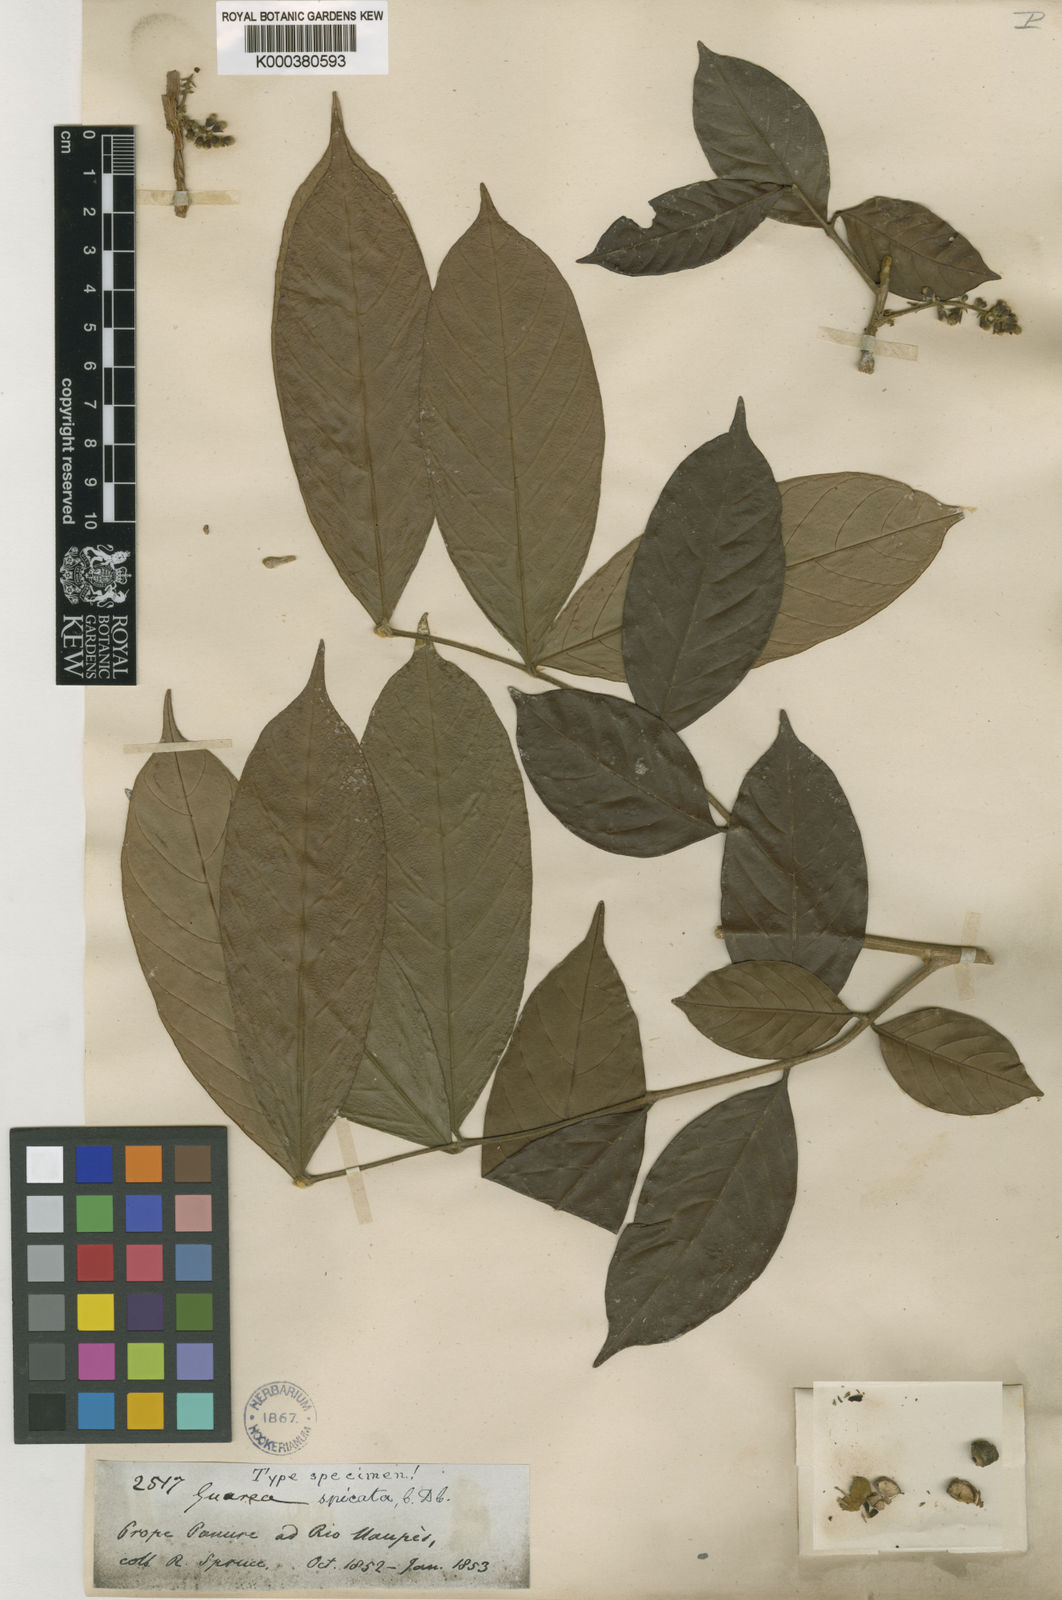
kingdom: Plantae
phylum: Tracheophyta
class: Magnoliopsida
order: Sapindales
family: Meliaceae
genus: Guarea
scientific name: Guarea pubescens
